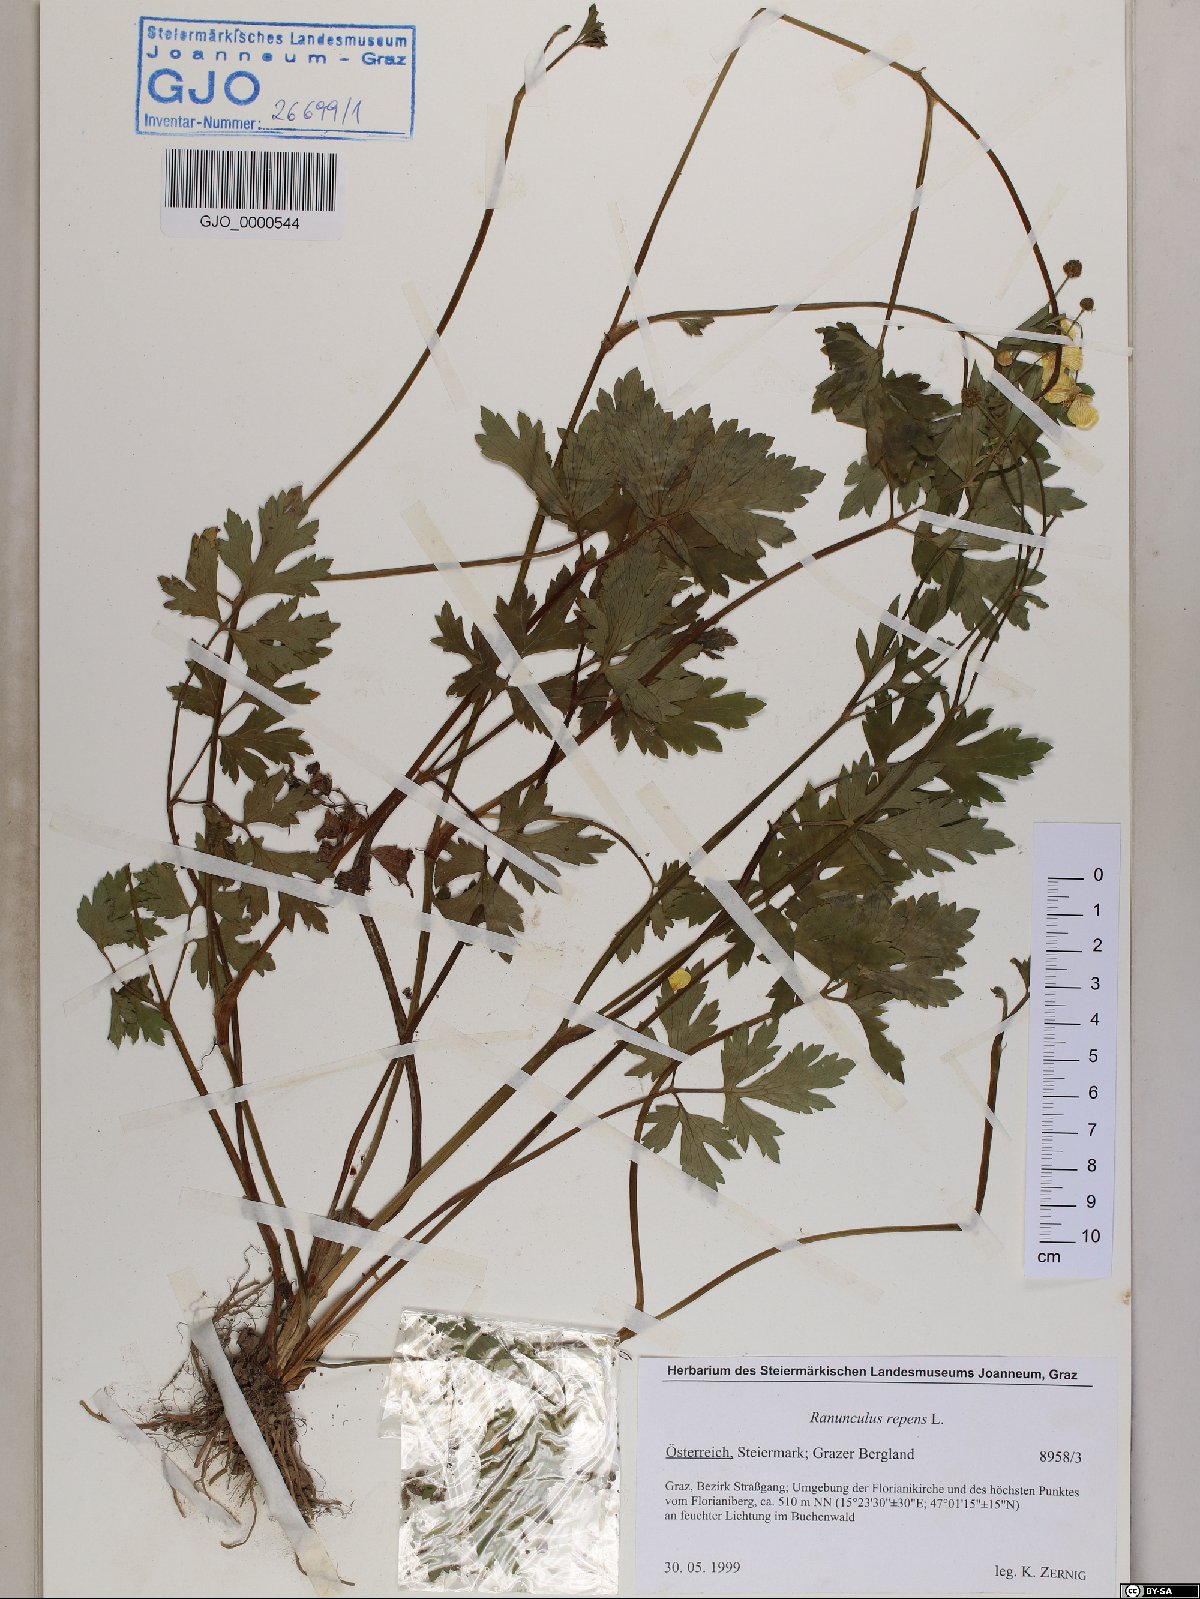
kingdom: Plantae
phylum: Tracheophyta
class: Magnoliopsida
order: Ranunculales
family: Ranunculaceae
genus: Ranunculus
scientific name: Ranunculus repens
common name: Creeping buttercup
